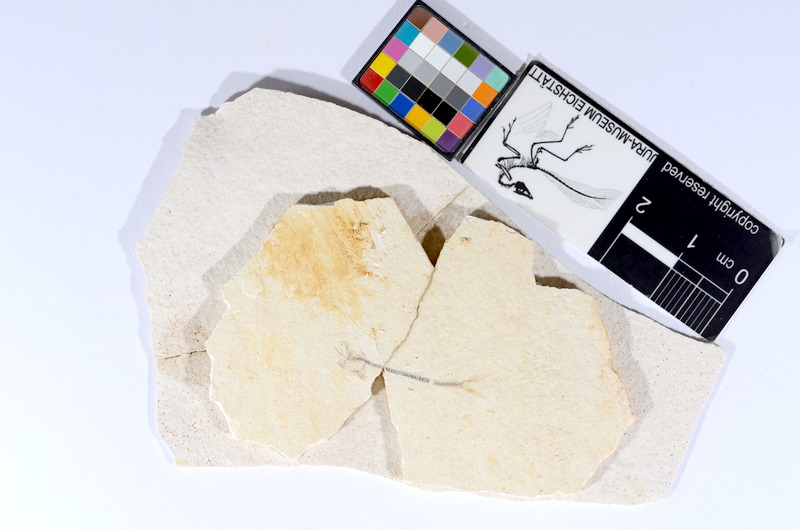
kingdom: Animalia
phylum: Chordata
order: Salmoniformes
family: Orthogonikleithridae
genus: Orthogonikleithrus
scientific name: Orthogonikleithrus hoelli
